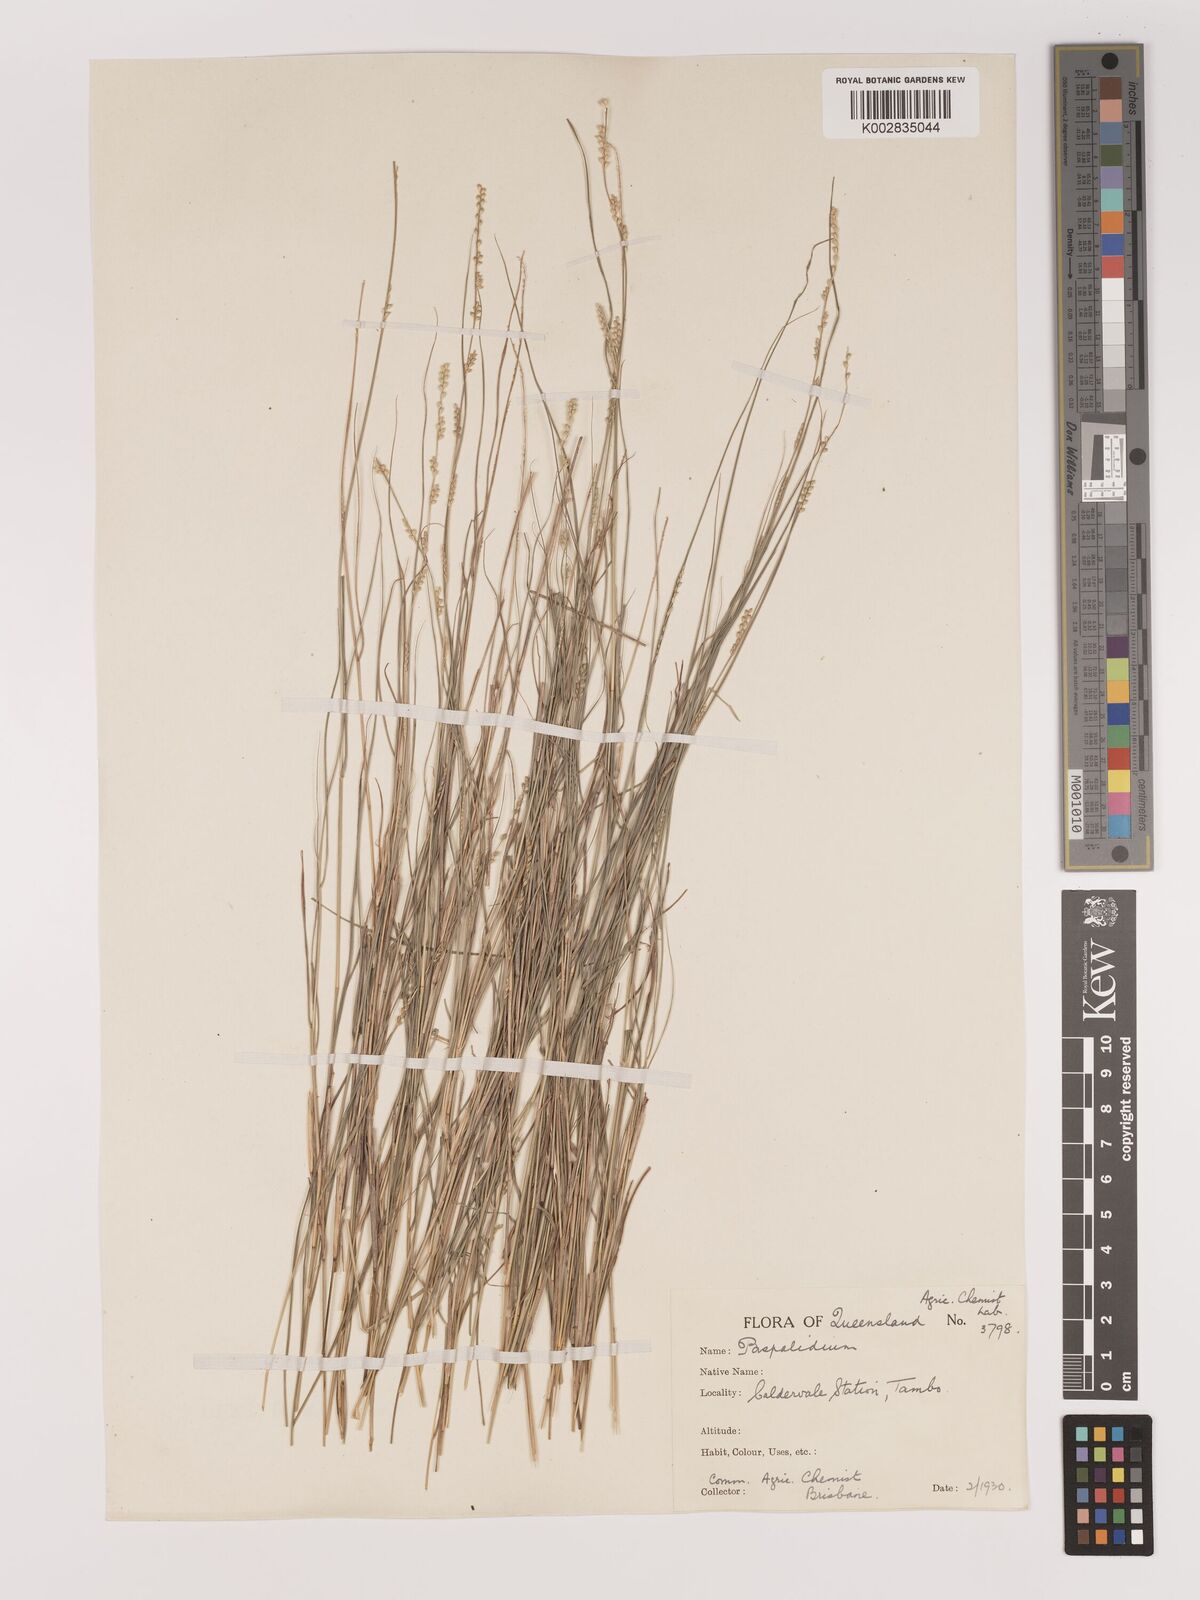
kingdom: Plantae
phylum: Tracheophyta
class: Liliopsida
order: Poales
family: Poaceae
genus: Setaria
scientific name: Setaria
